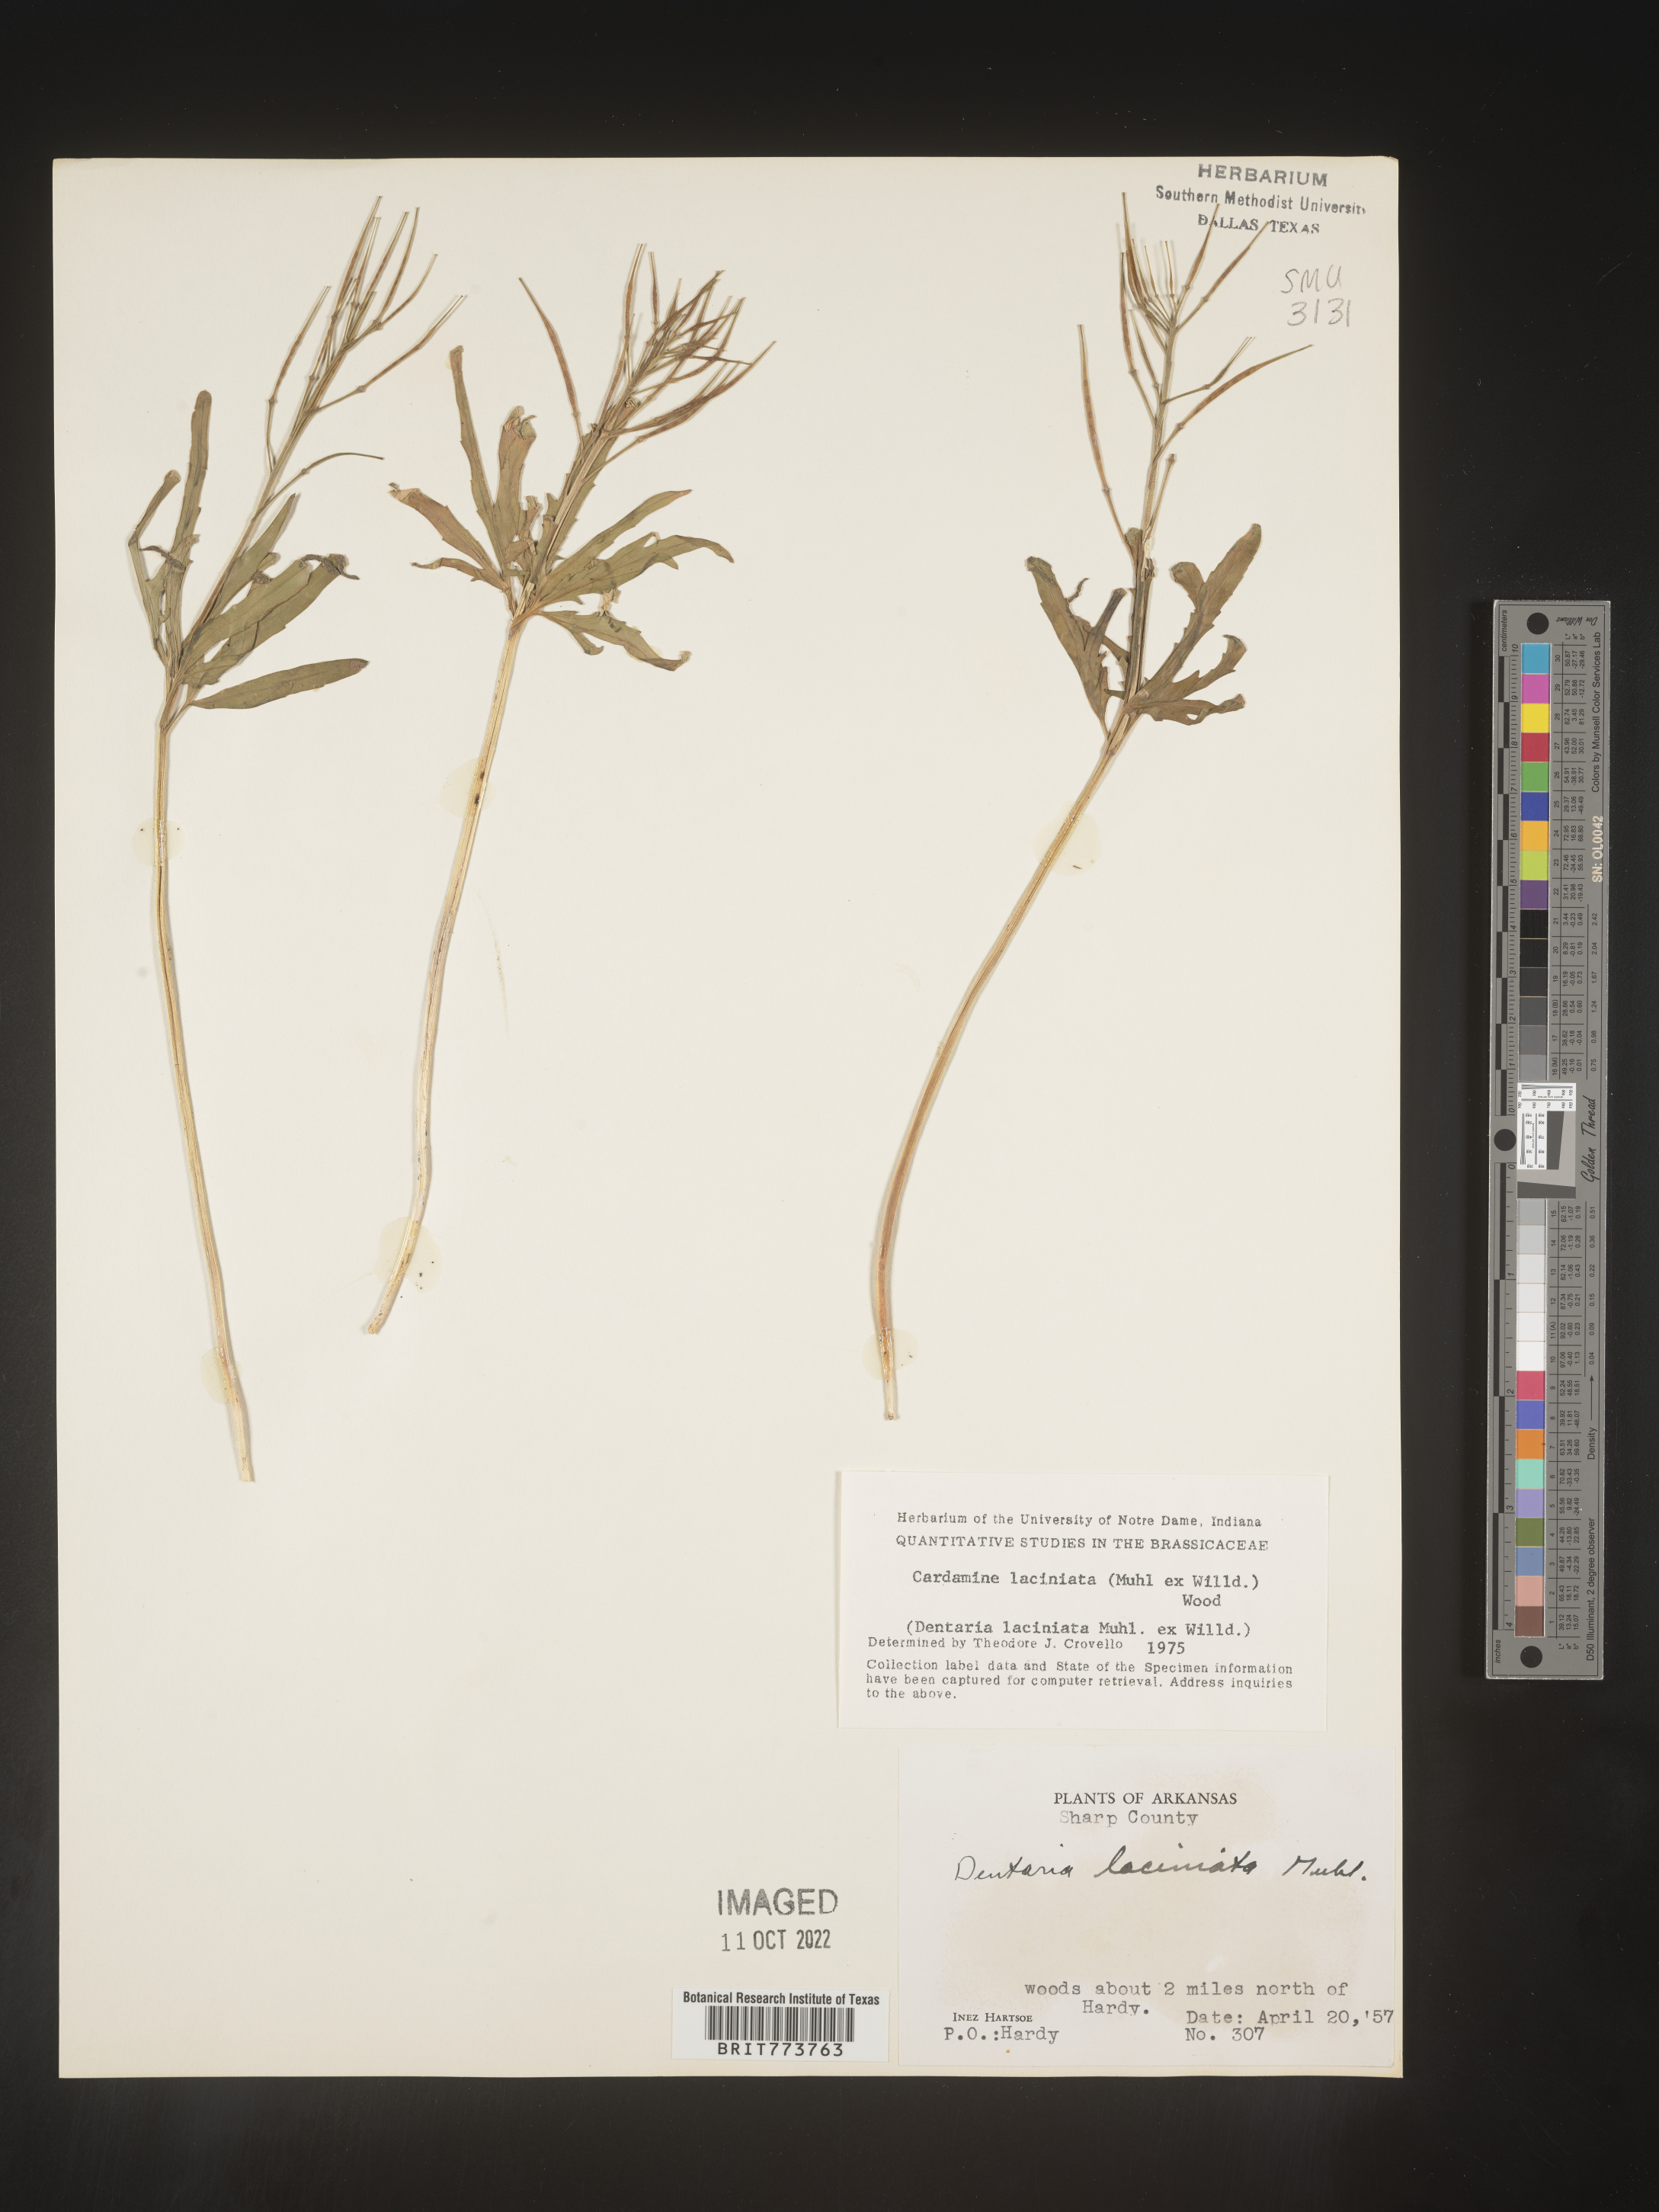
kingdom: Plantae
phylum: Tracheophyta
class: Magnoliopsida
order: Brassicales
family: Brassicaceae
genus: Rorippa
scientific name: Rorippa laciniata
